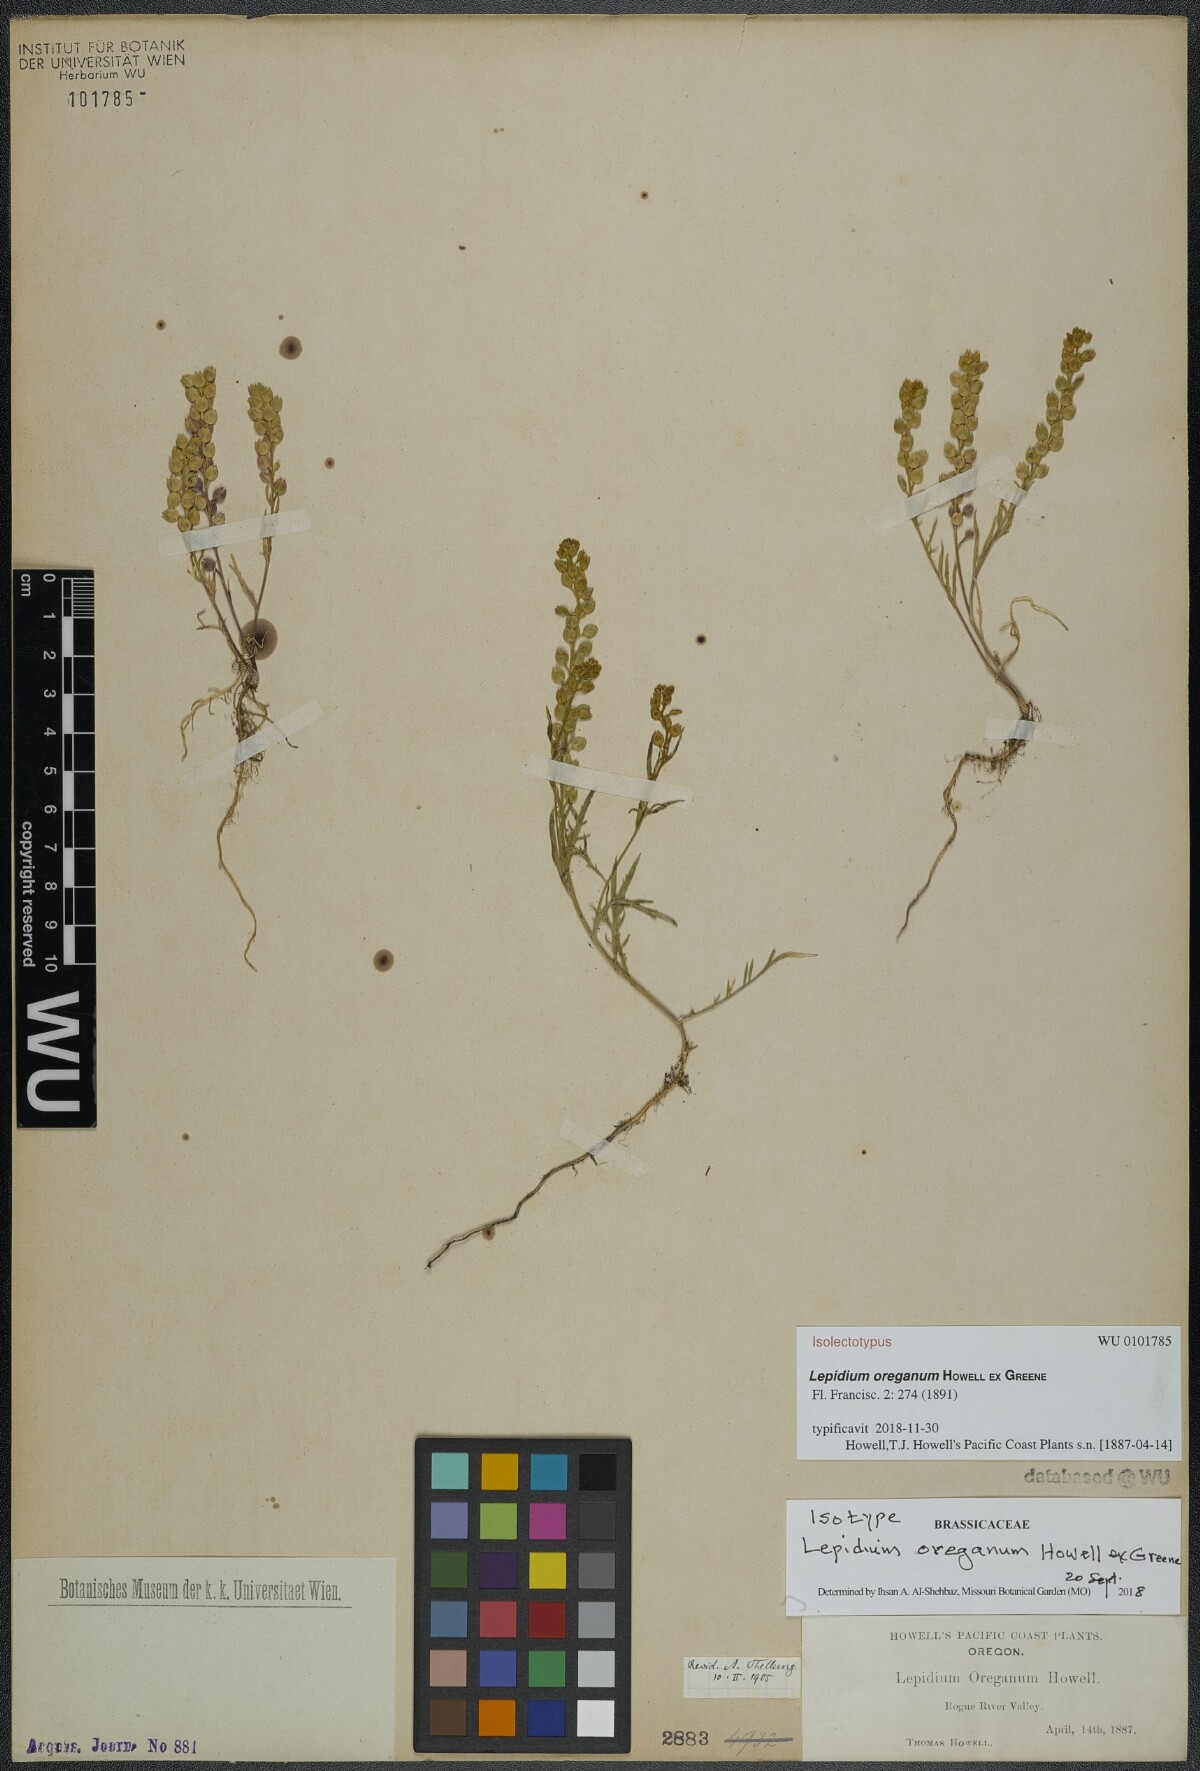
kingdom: Plantae
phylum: Tracheophyta
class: Magnoliopsida
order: Brassicales
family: Brassicaceae
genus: Lepidium
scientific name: Lepidium nitidum
